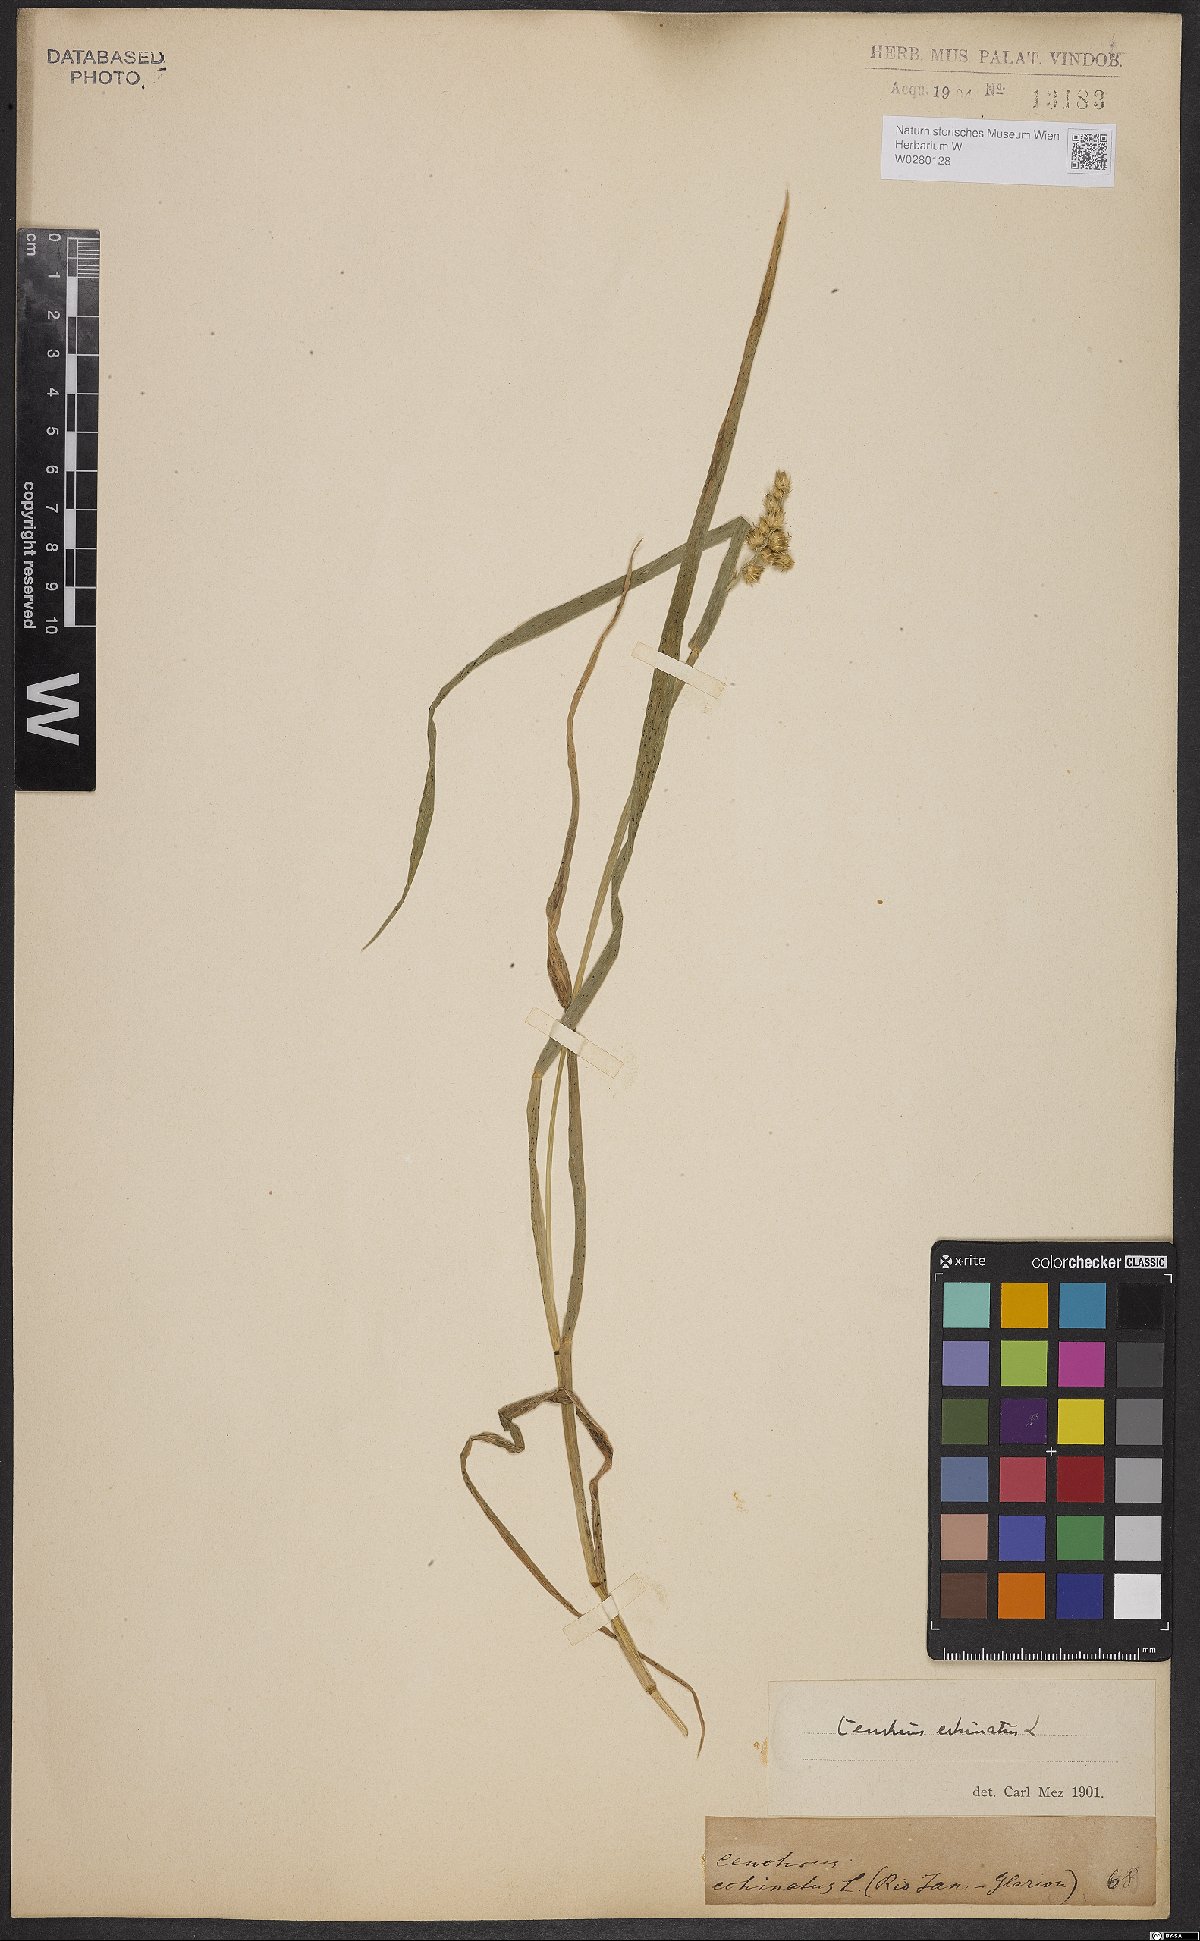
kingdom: Plantae
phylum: Tracheophyta
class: Liliopsida
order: Poales
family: Poaceae
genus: Cenchrus
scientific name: Cenchrus echinatus
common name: Southern sandbur
